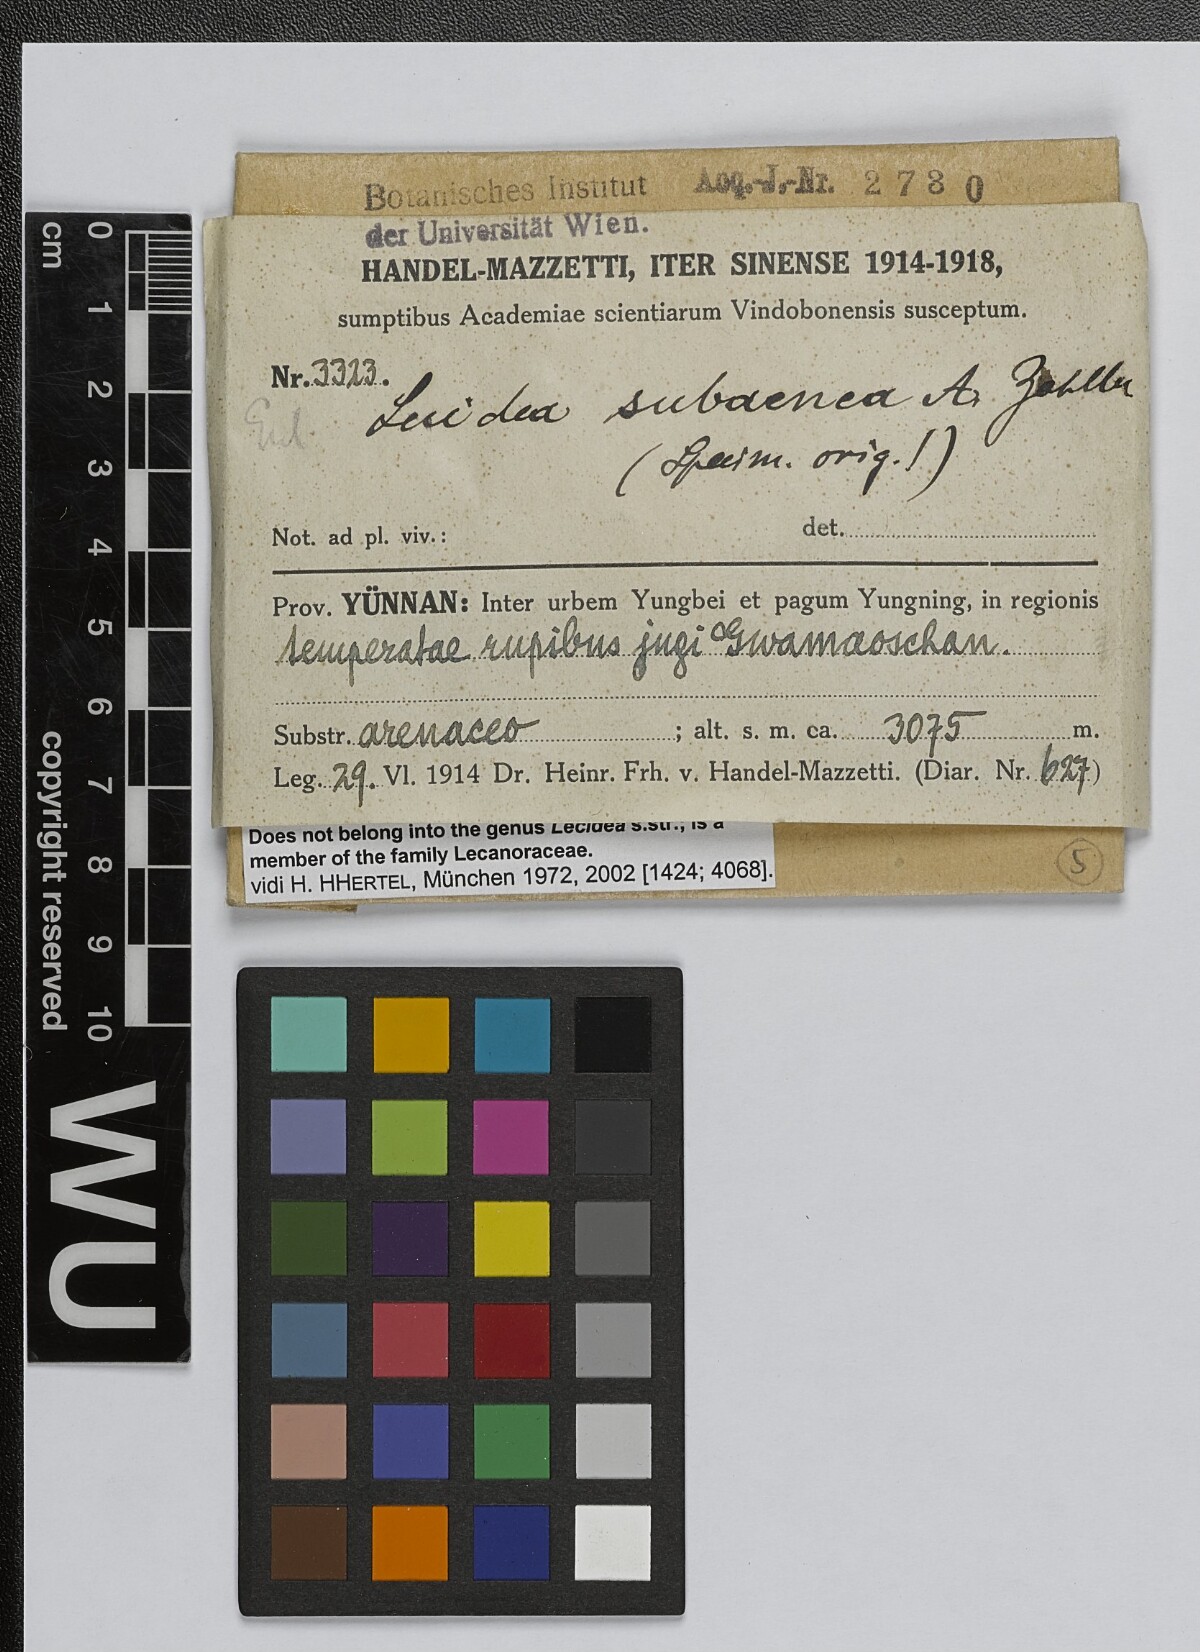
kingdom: Fungi
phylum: Ascomycota
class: Lecanoromycetes
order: Lecideales
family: Lecideaceae
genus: Lecidea
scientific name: Lecidea
